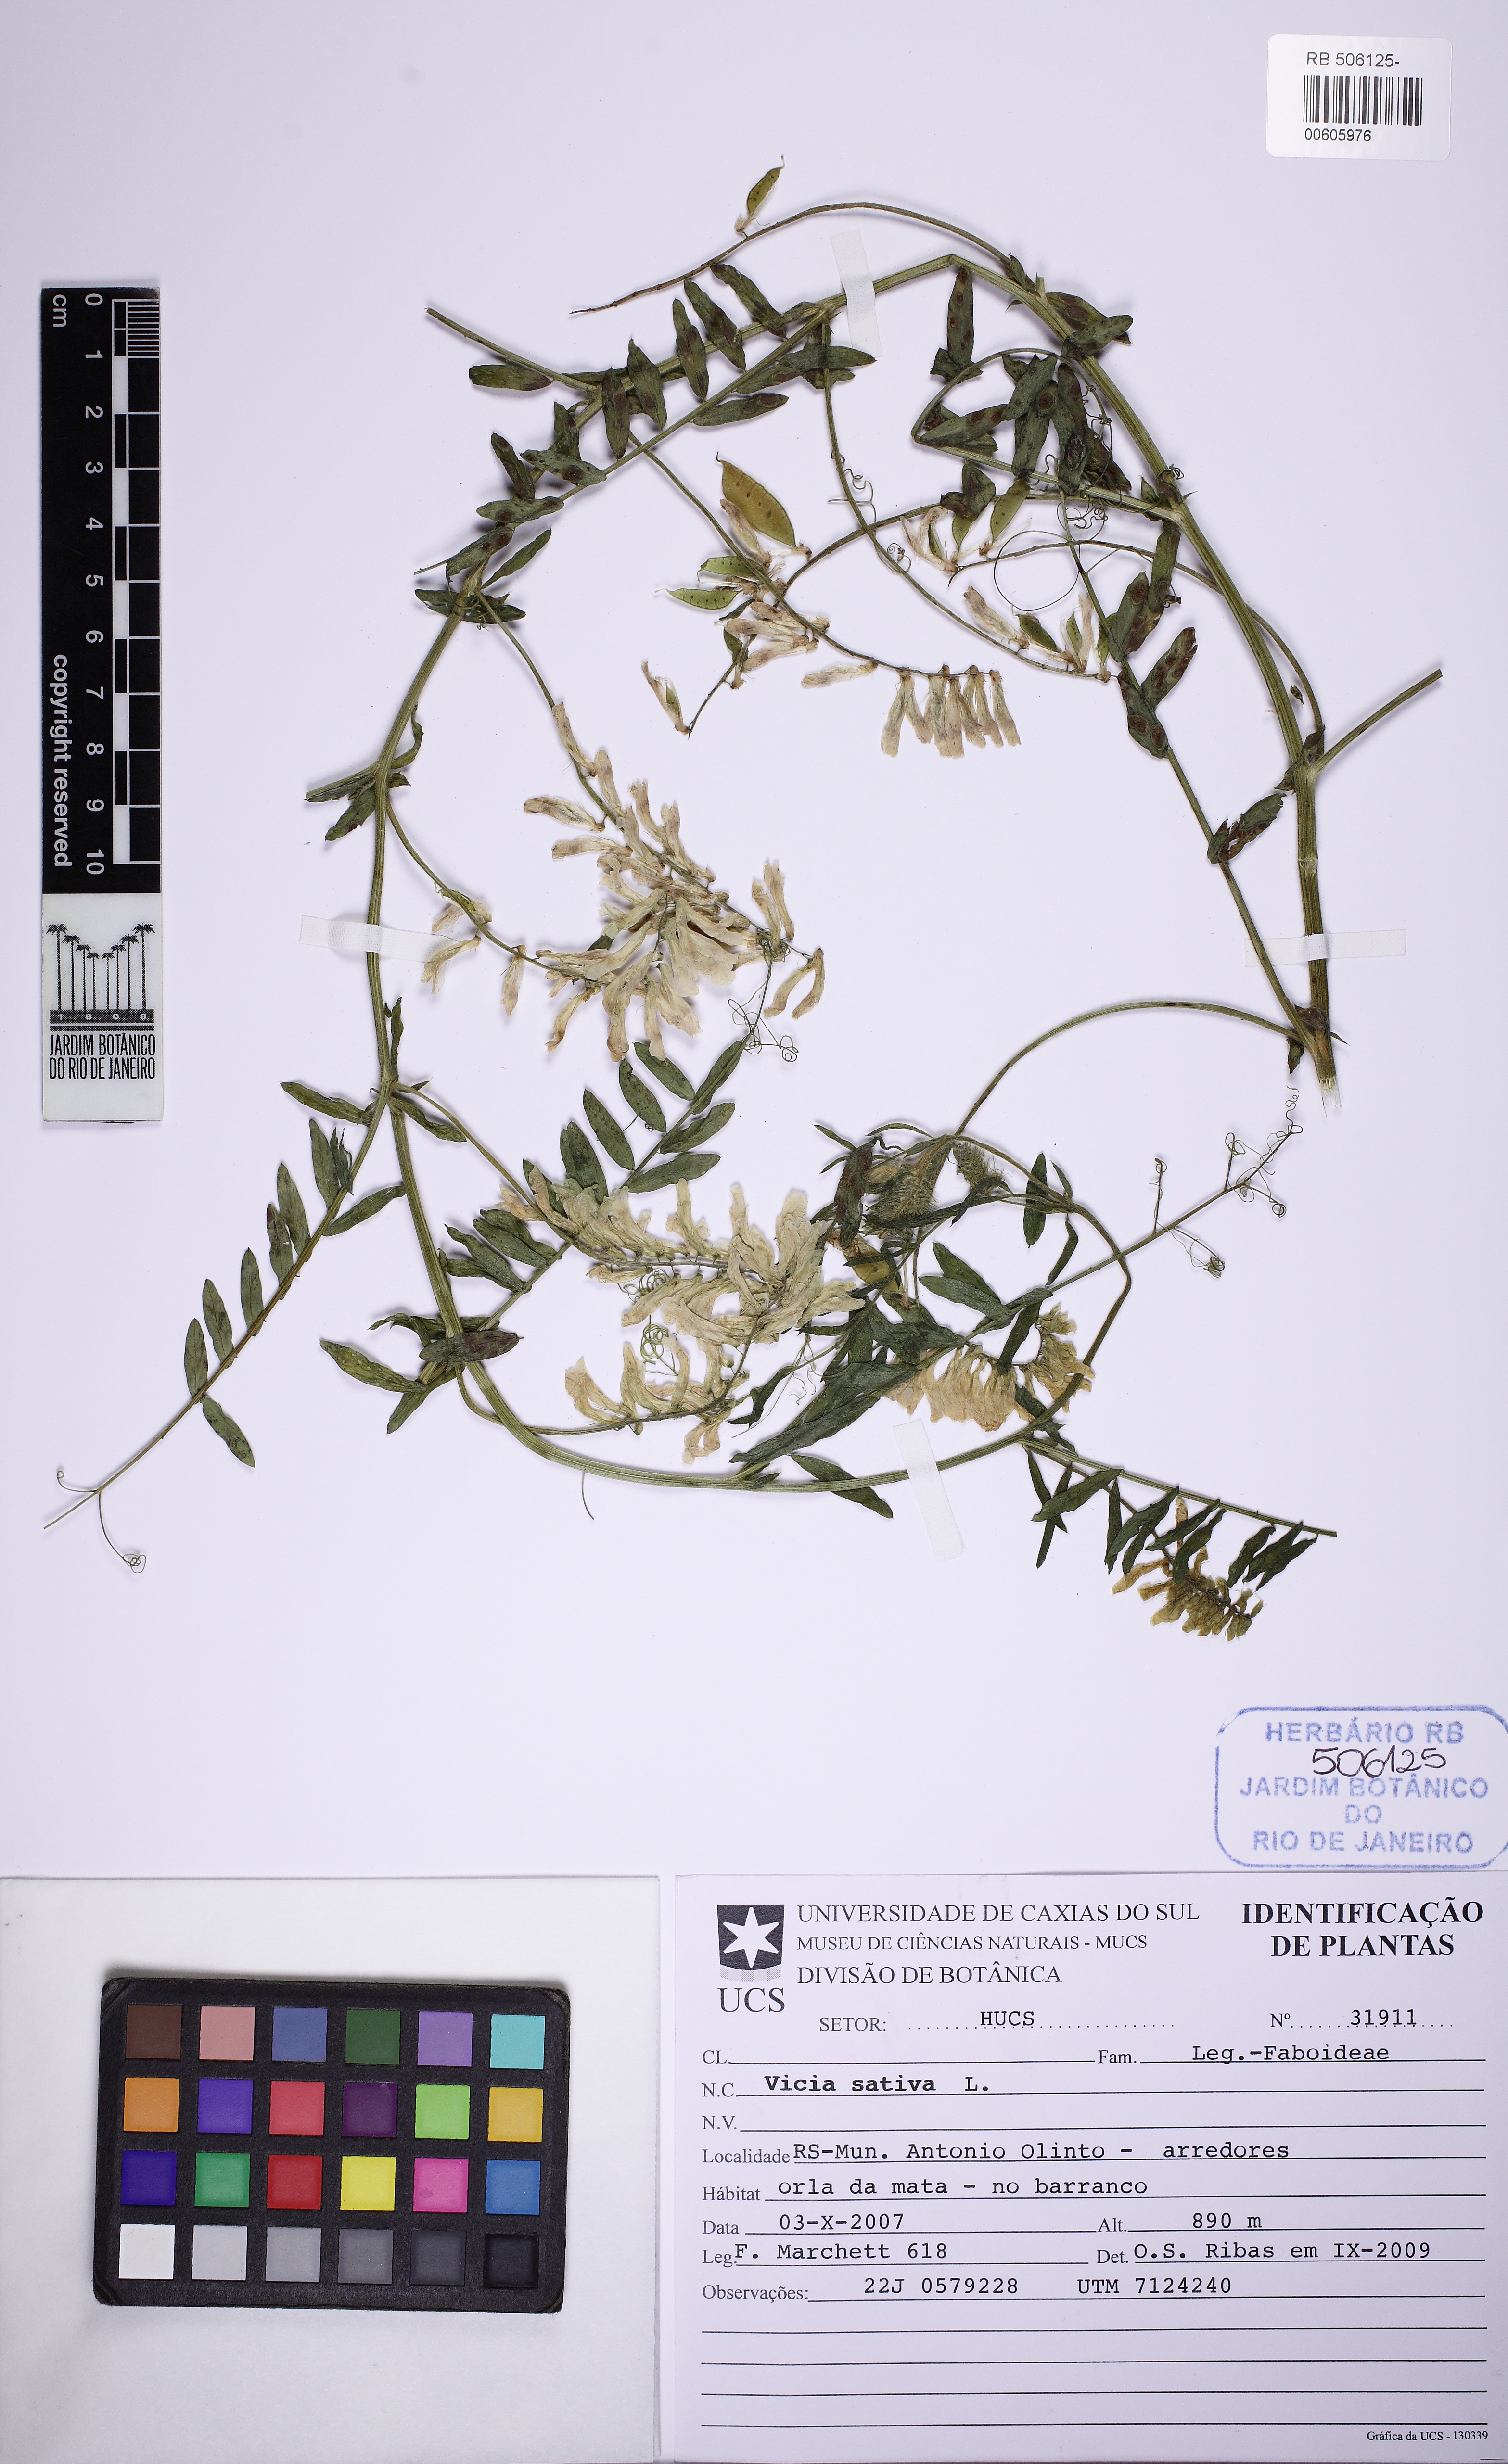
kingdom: Plantae
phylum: Tracheophyta
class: Magnoliopsida
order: Fabales
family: Fabaceae
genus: Vicia
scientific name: Vicia sativa
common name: Garden vetch
